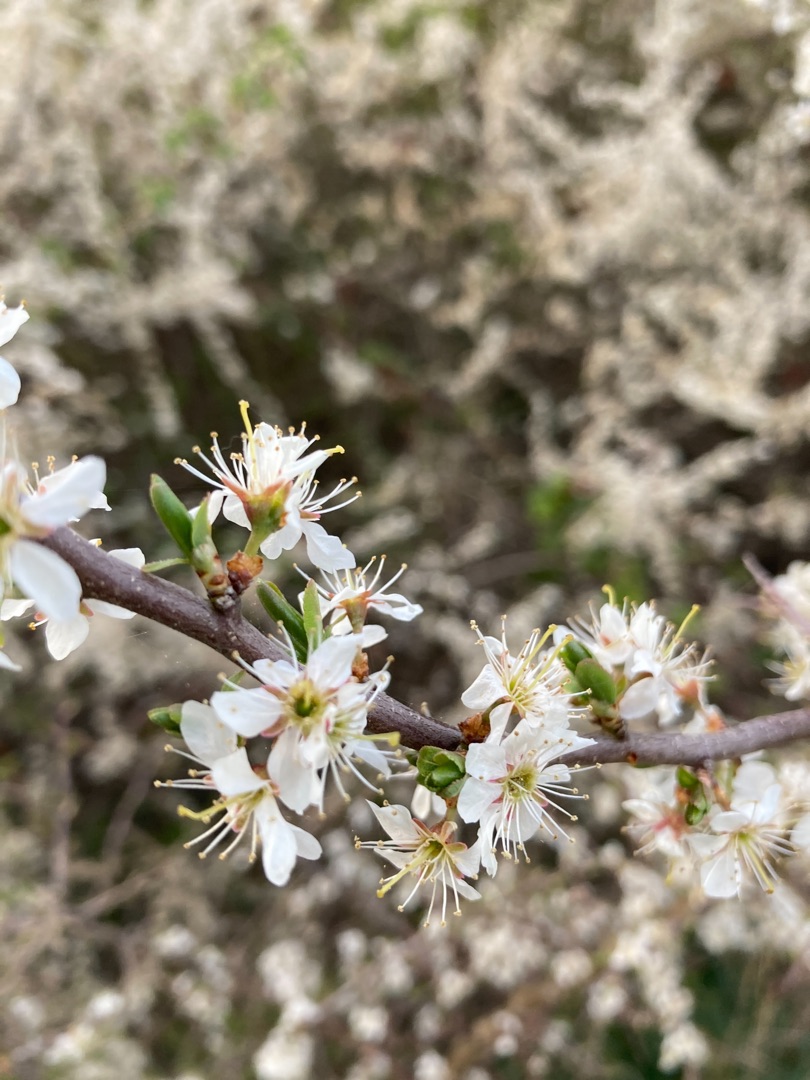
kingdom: Plantae
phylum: Tracheophyta
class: Magnoliopsida
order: Rosales
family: Rosaceae
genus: Prunus
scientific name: Prunus spinosa
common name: Slåen
